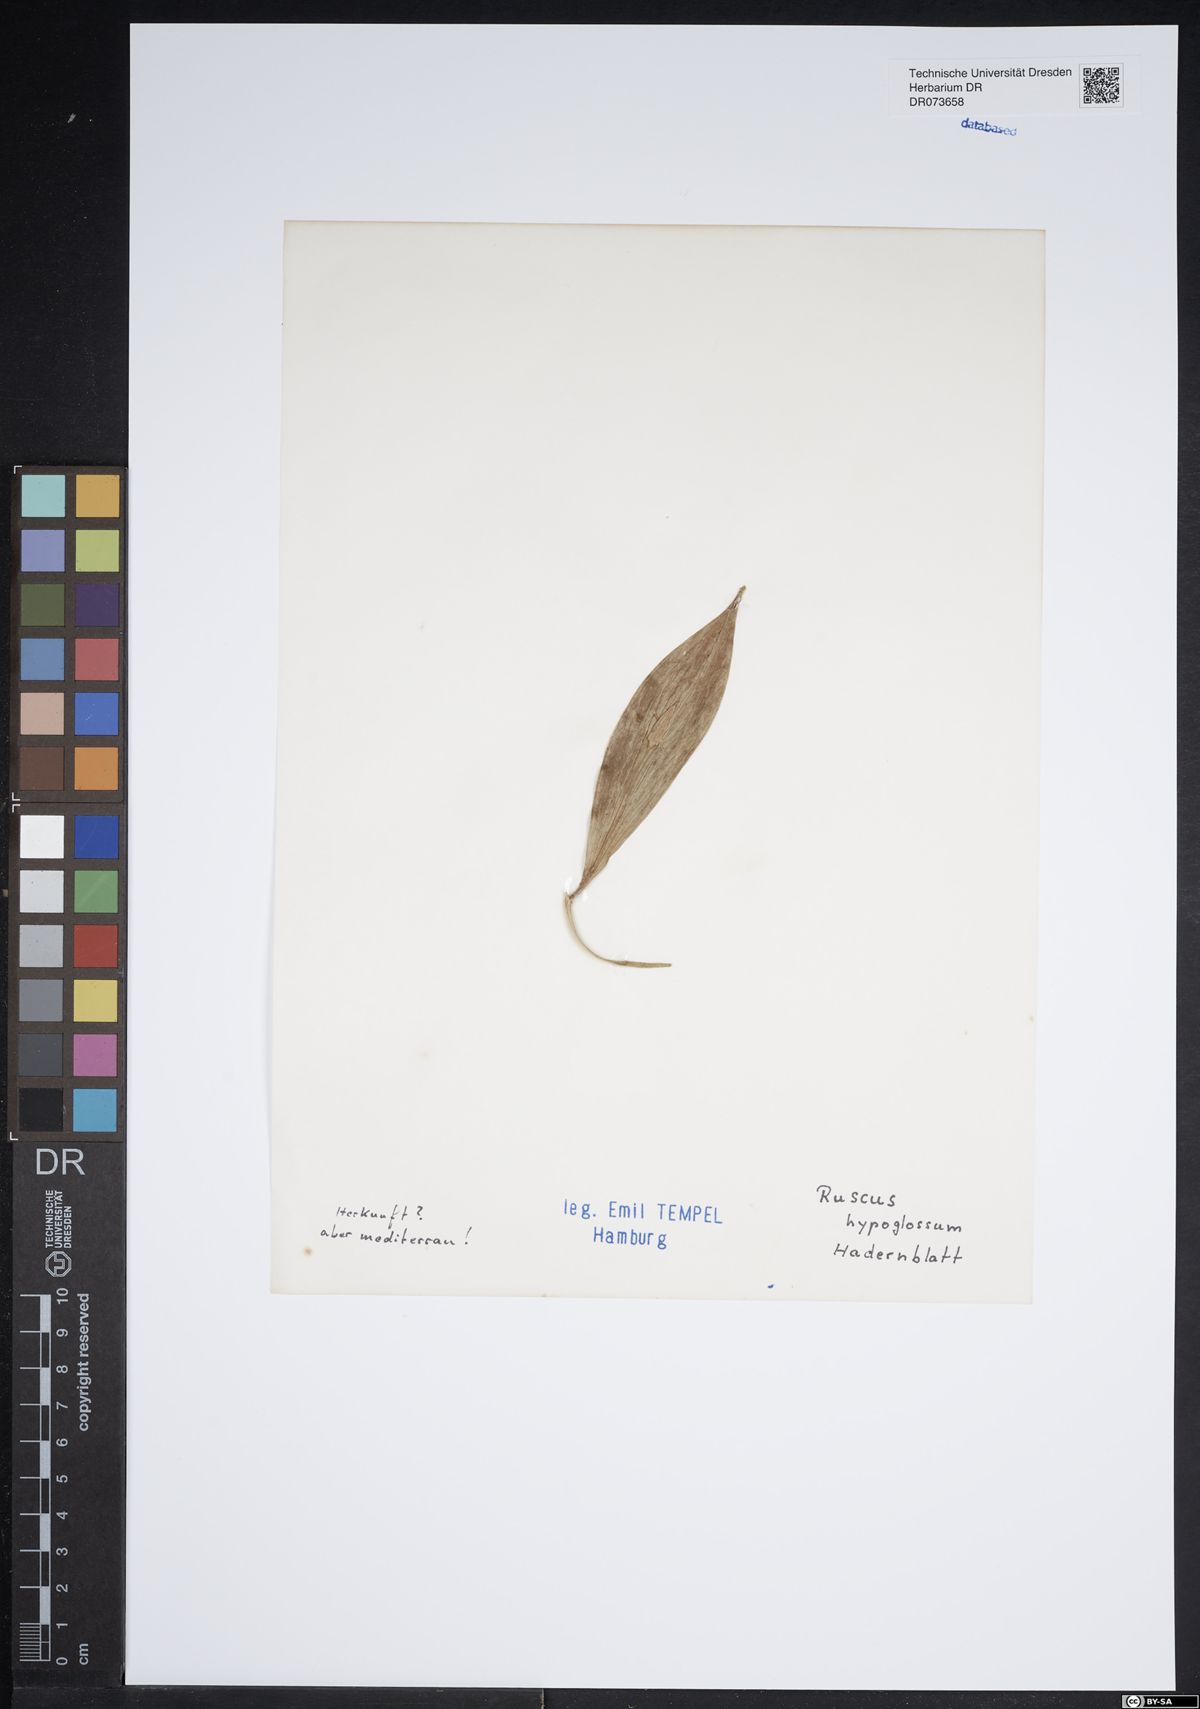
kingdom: Plantae
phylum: Tracheophyta
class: Liliopsida
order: Asparagales
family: Asparagaceae
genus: Ruscus
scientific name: Ruscus hypoglossum
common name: Spineless butcher's-broom
